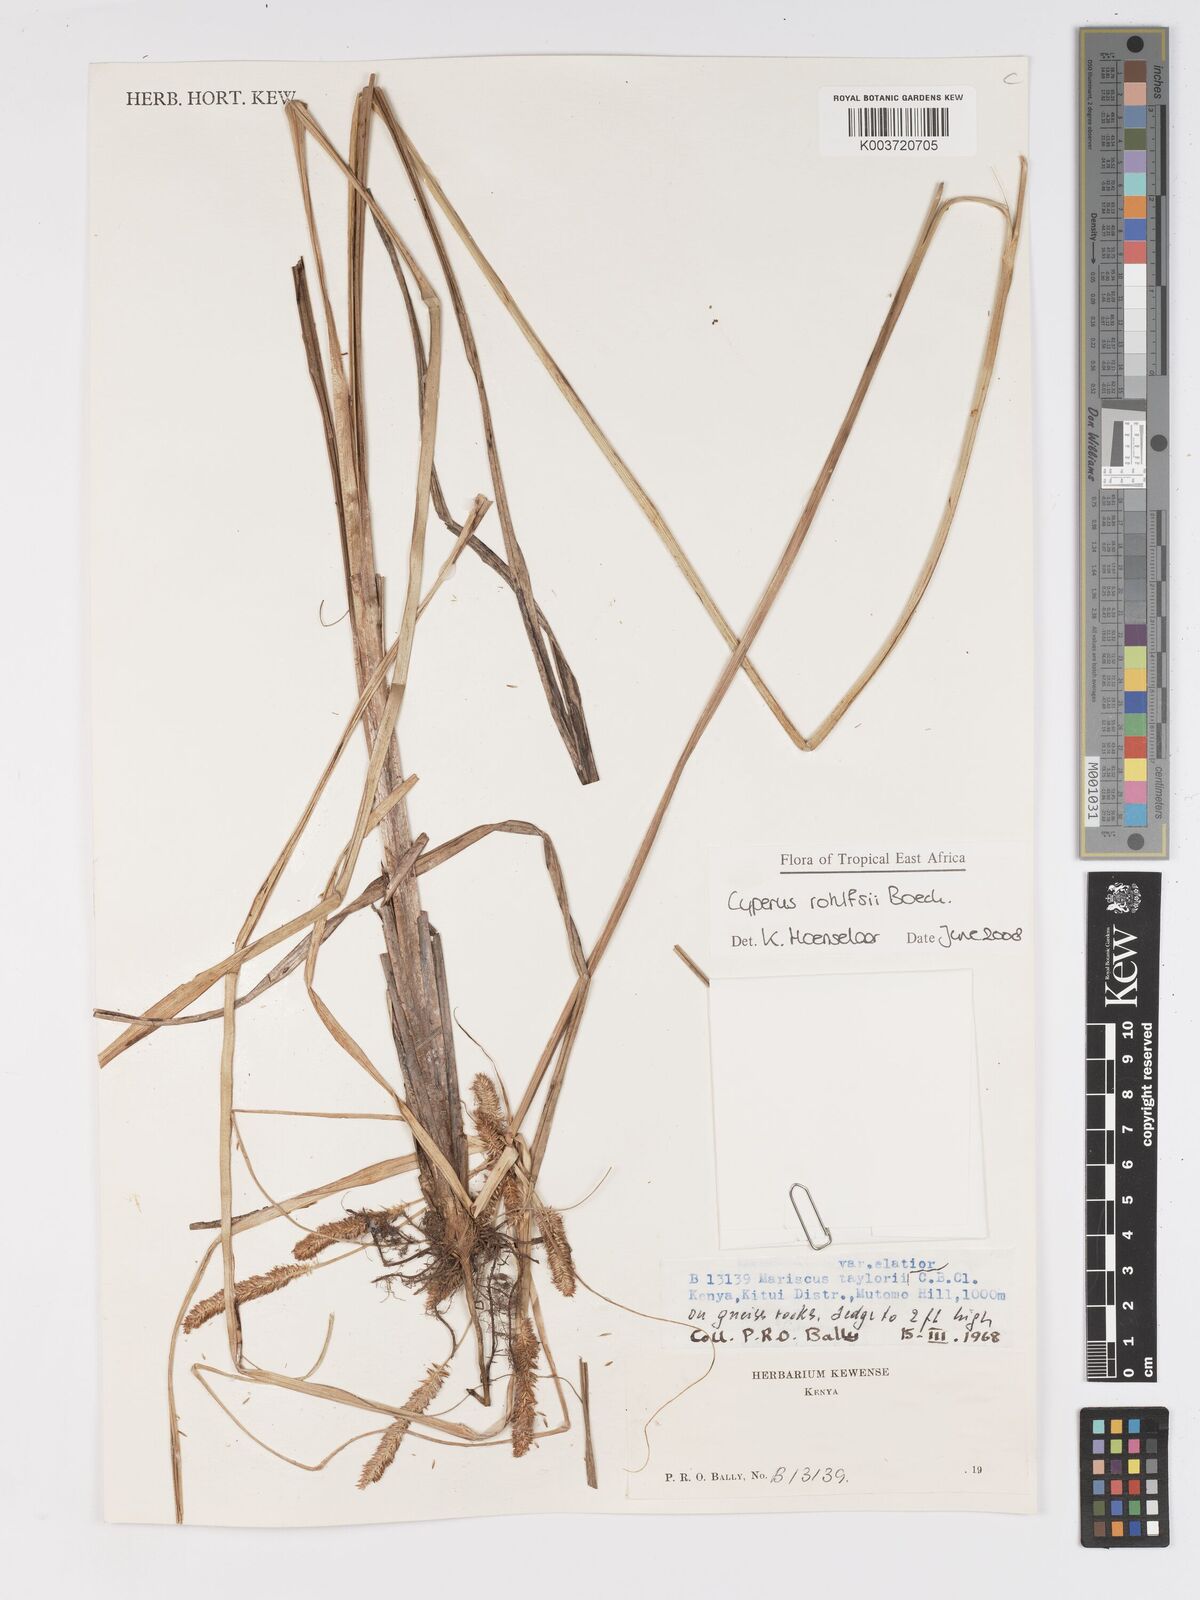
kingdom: Plantae
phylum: Tracheophyta
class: Liliopsida
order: Poales
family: Cyperaceae
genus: Cyperus
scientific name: Cyperus rohlfsii
